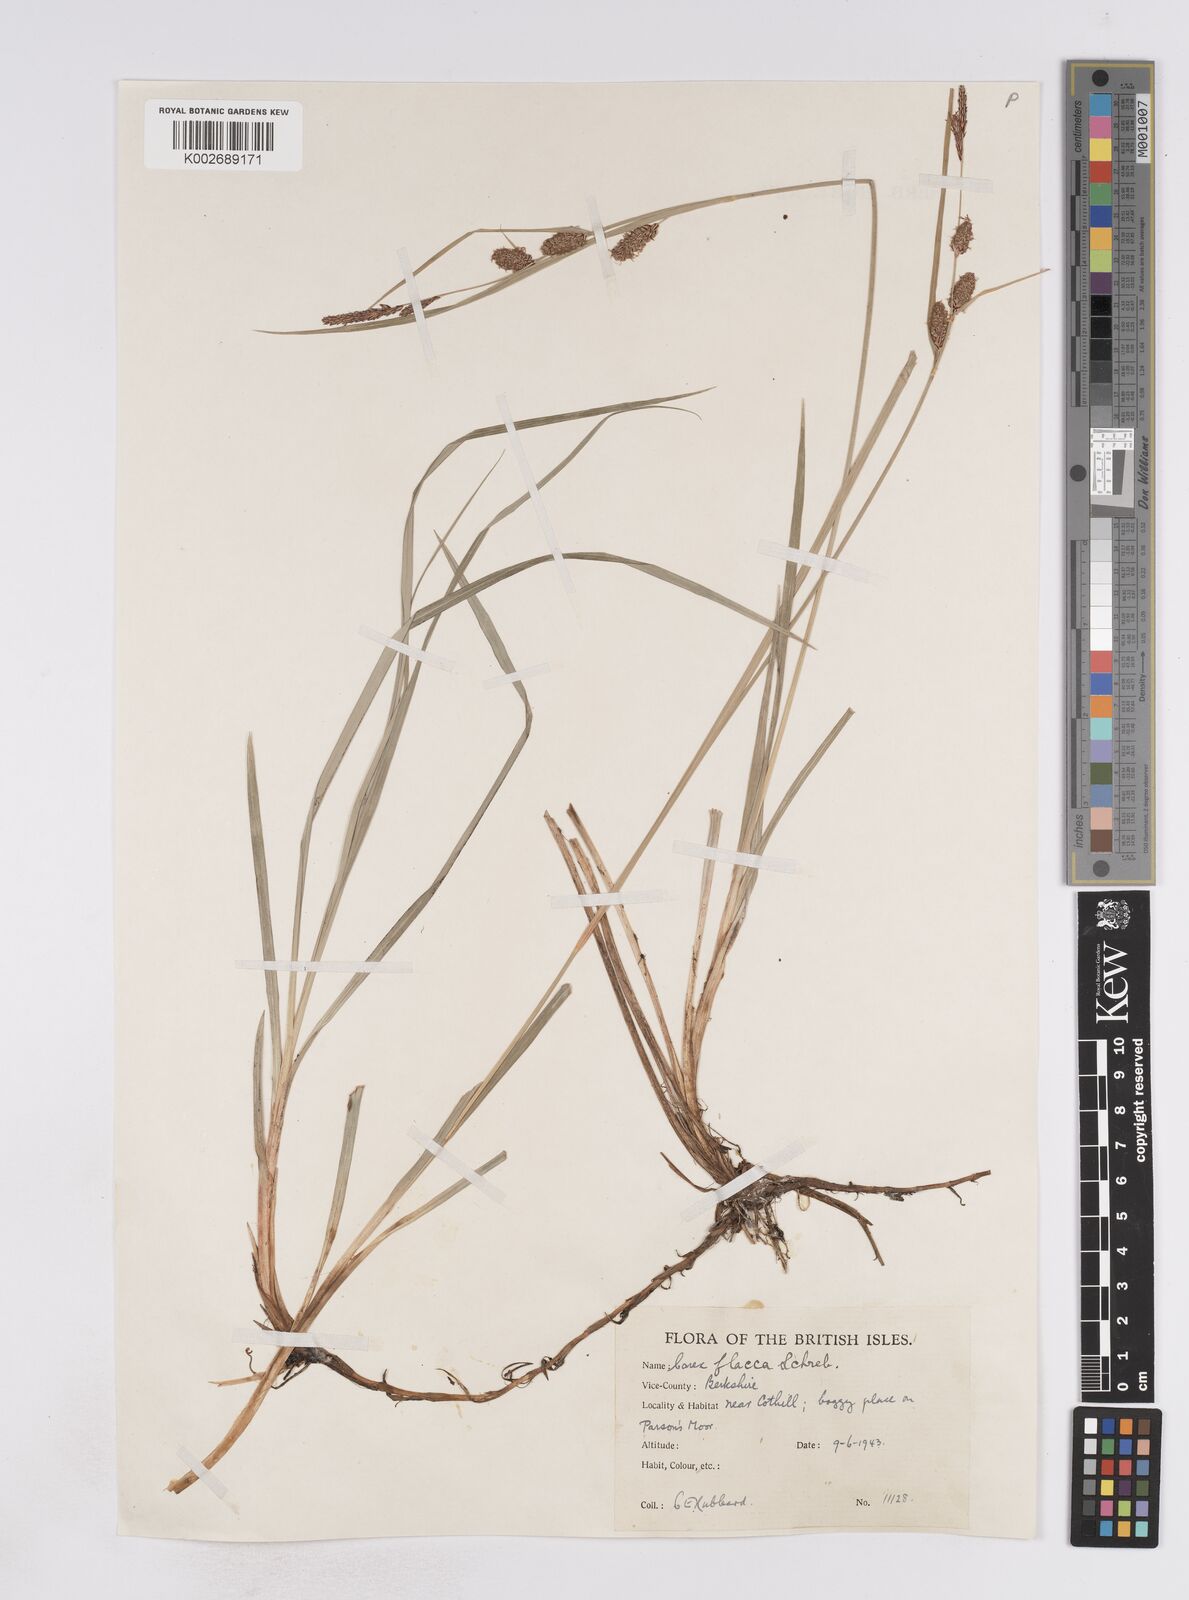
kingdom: Plantae
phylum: Tracheophyta
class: Liliopsida
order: Poales
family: Cyperaceae
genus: Carex
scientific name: Carex flacca
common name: Glaucous sedge
